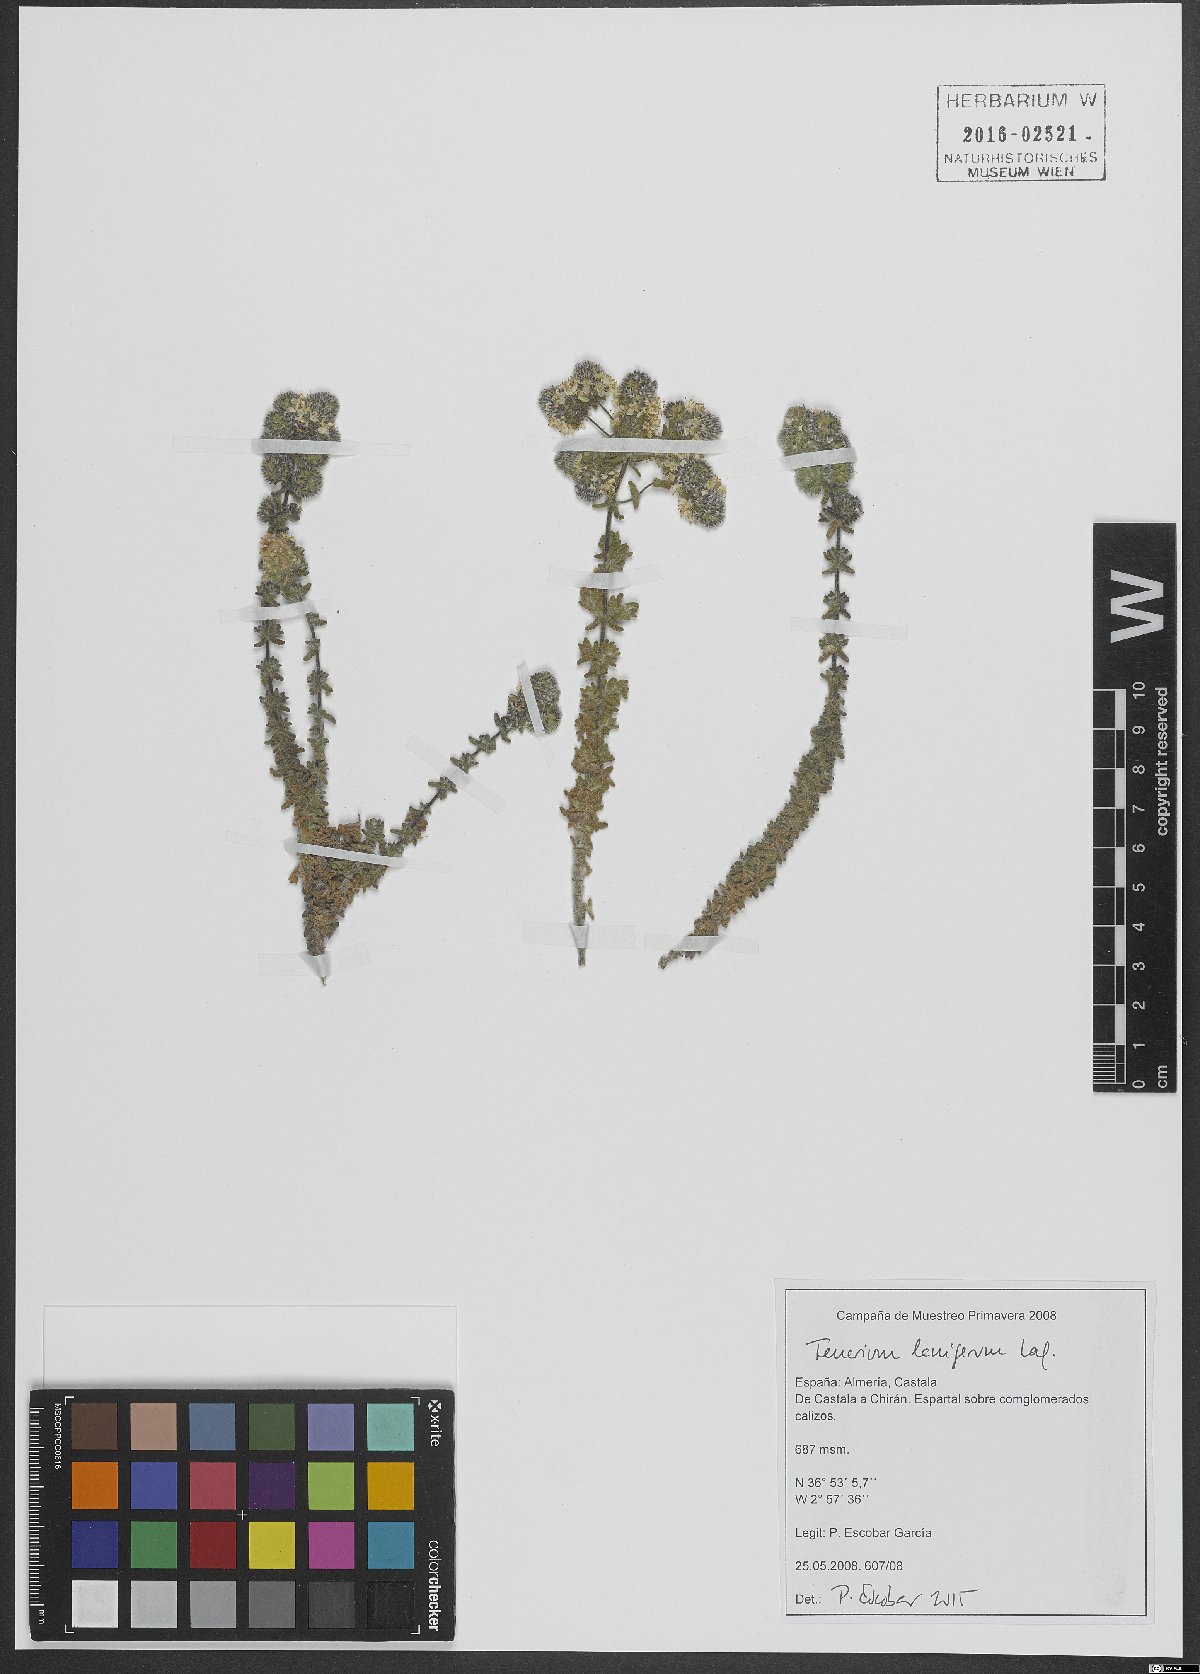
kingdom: Plantae
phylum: Tracheophyta
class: Magnoliopsida
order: Lamiales
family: Lamiaceae
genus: Teucrium
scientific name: Teucrium lanigerum
